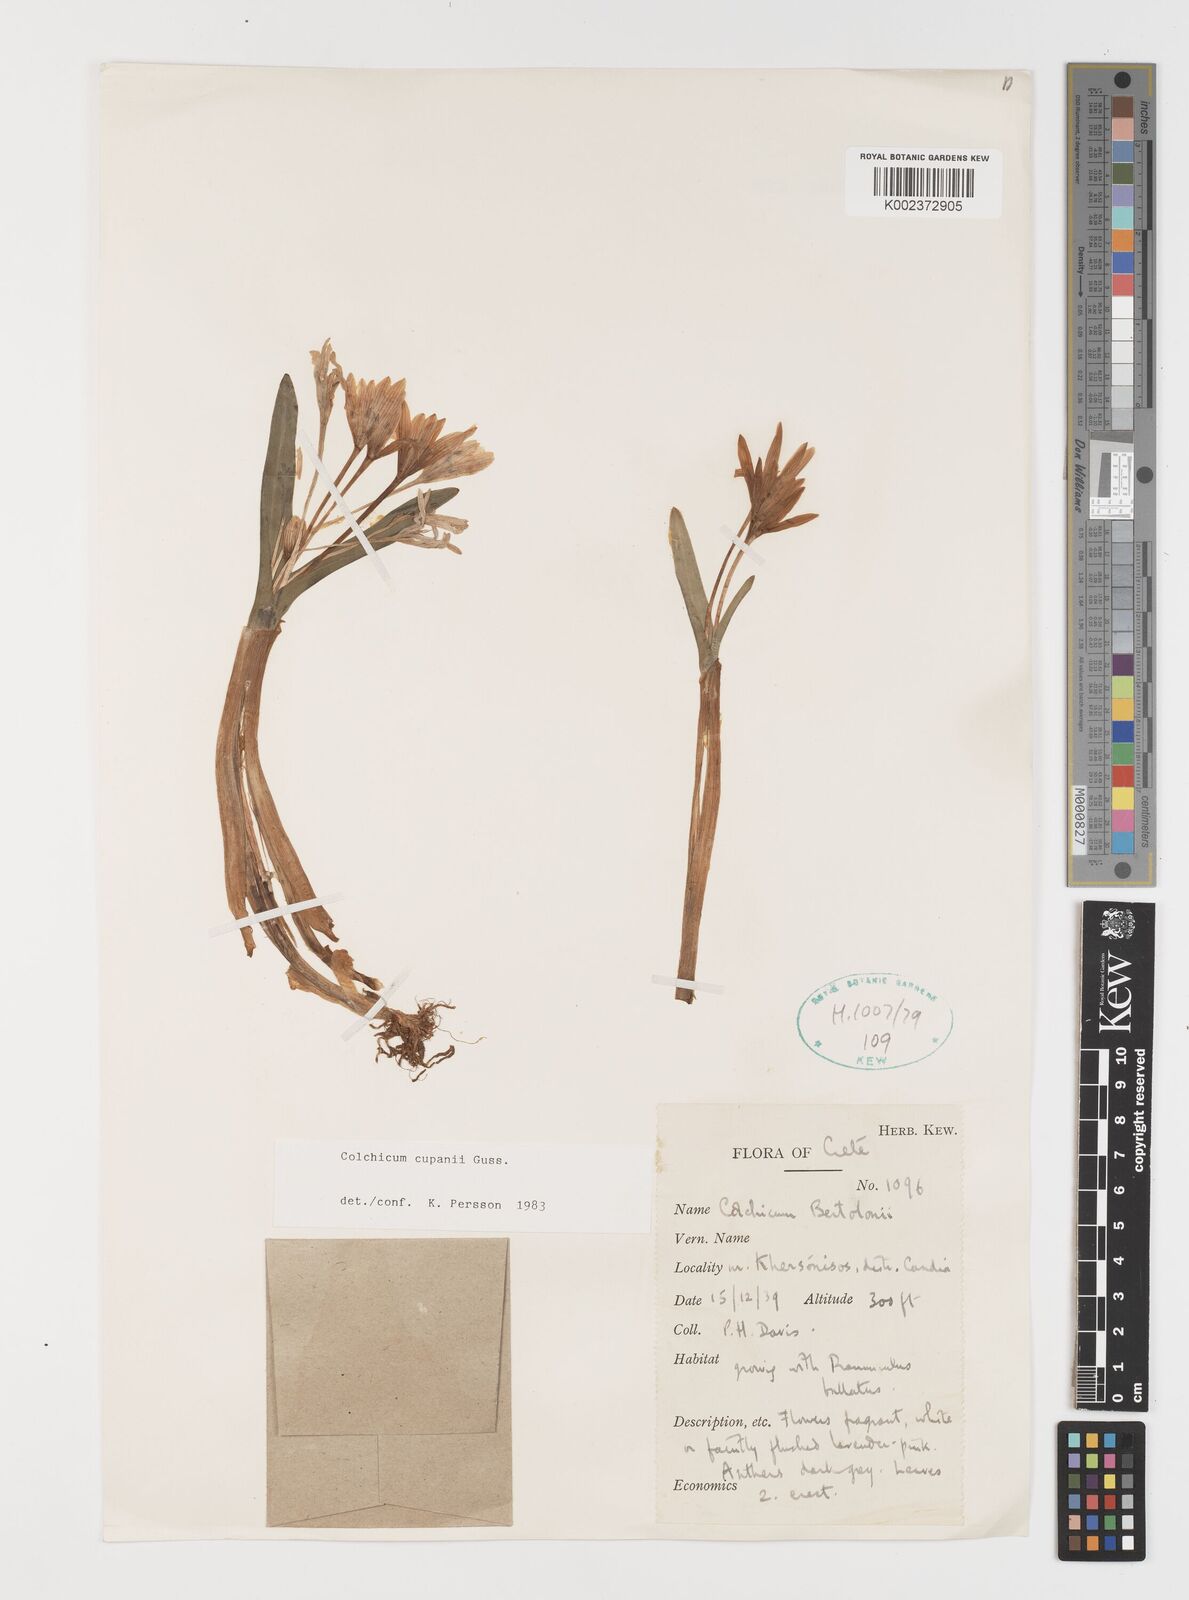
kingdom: Plantae
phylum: Tracheophyta
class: Liliopsida
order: Liliales
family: Colchicaceae
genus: Colchicum
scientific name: Colchicum cupanii
